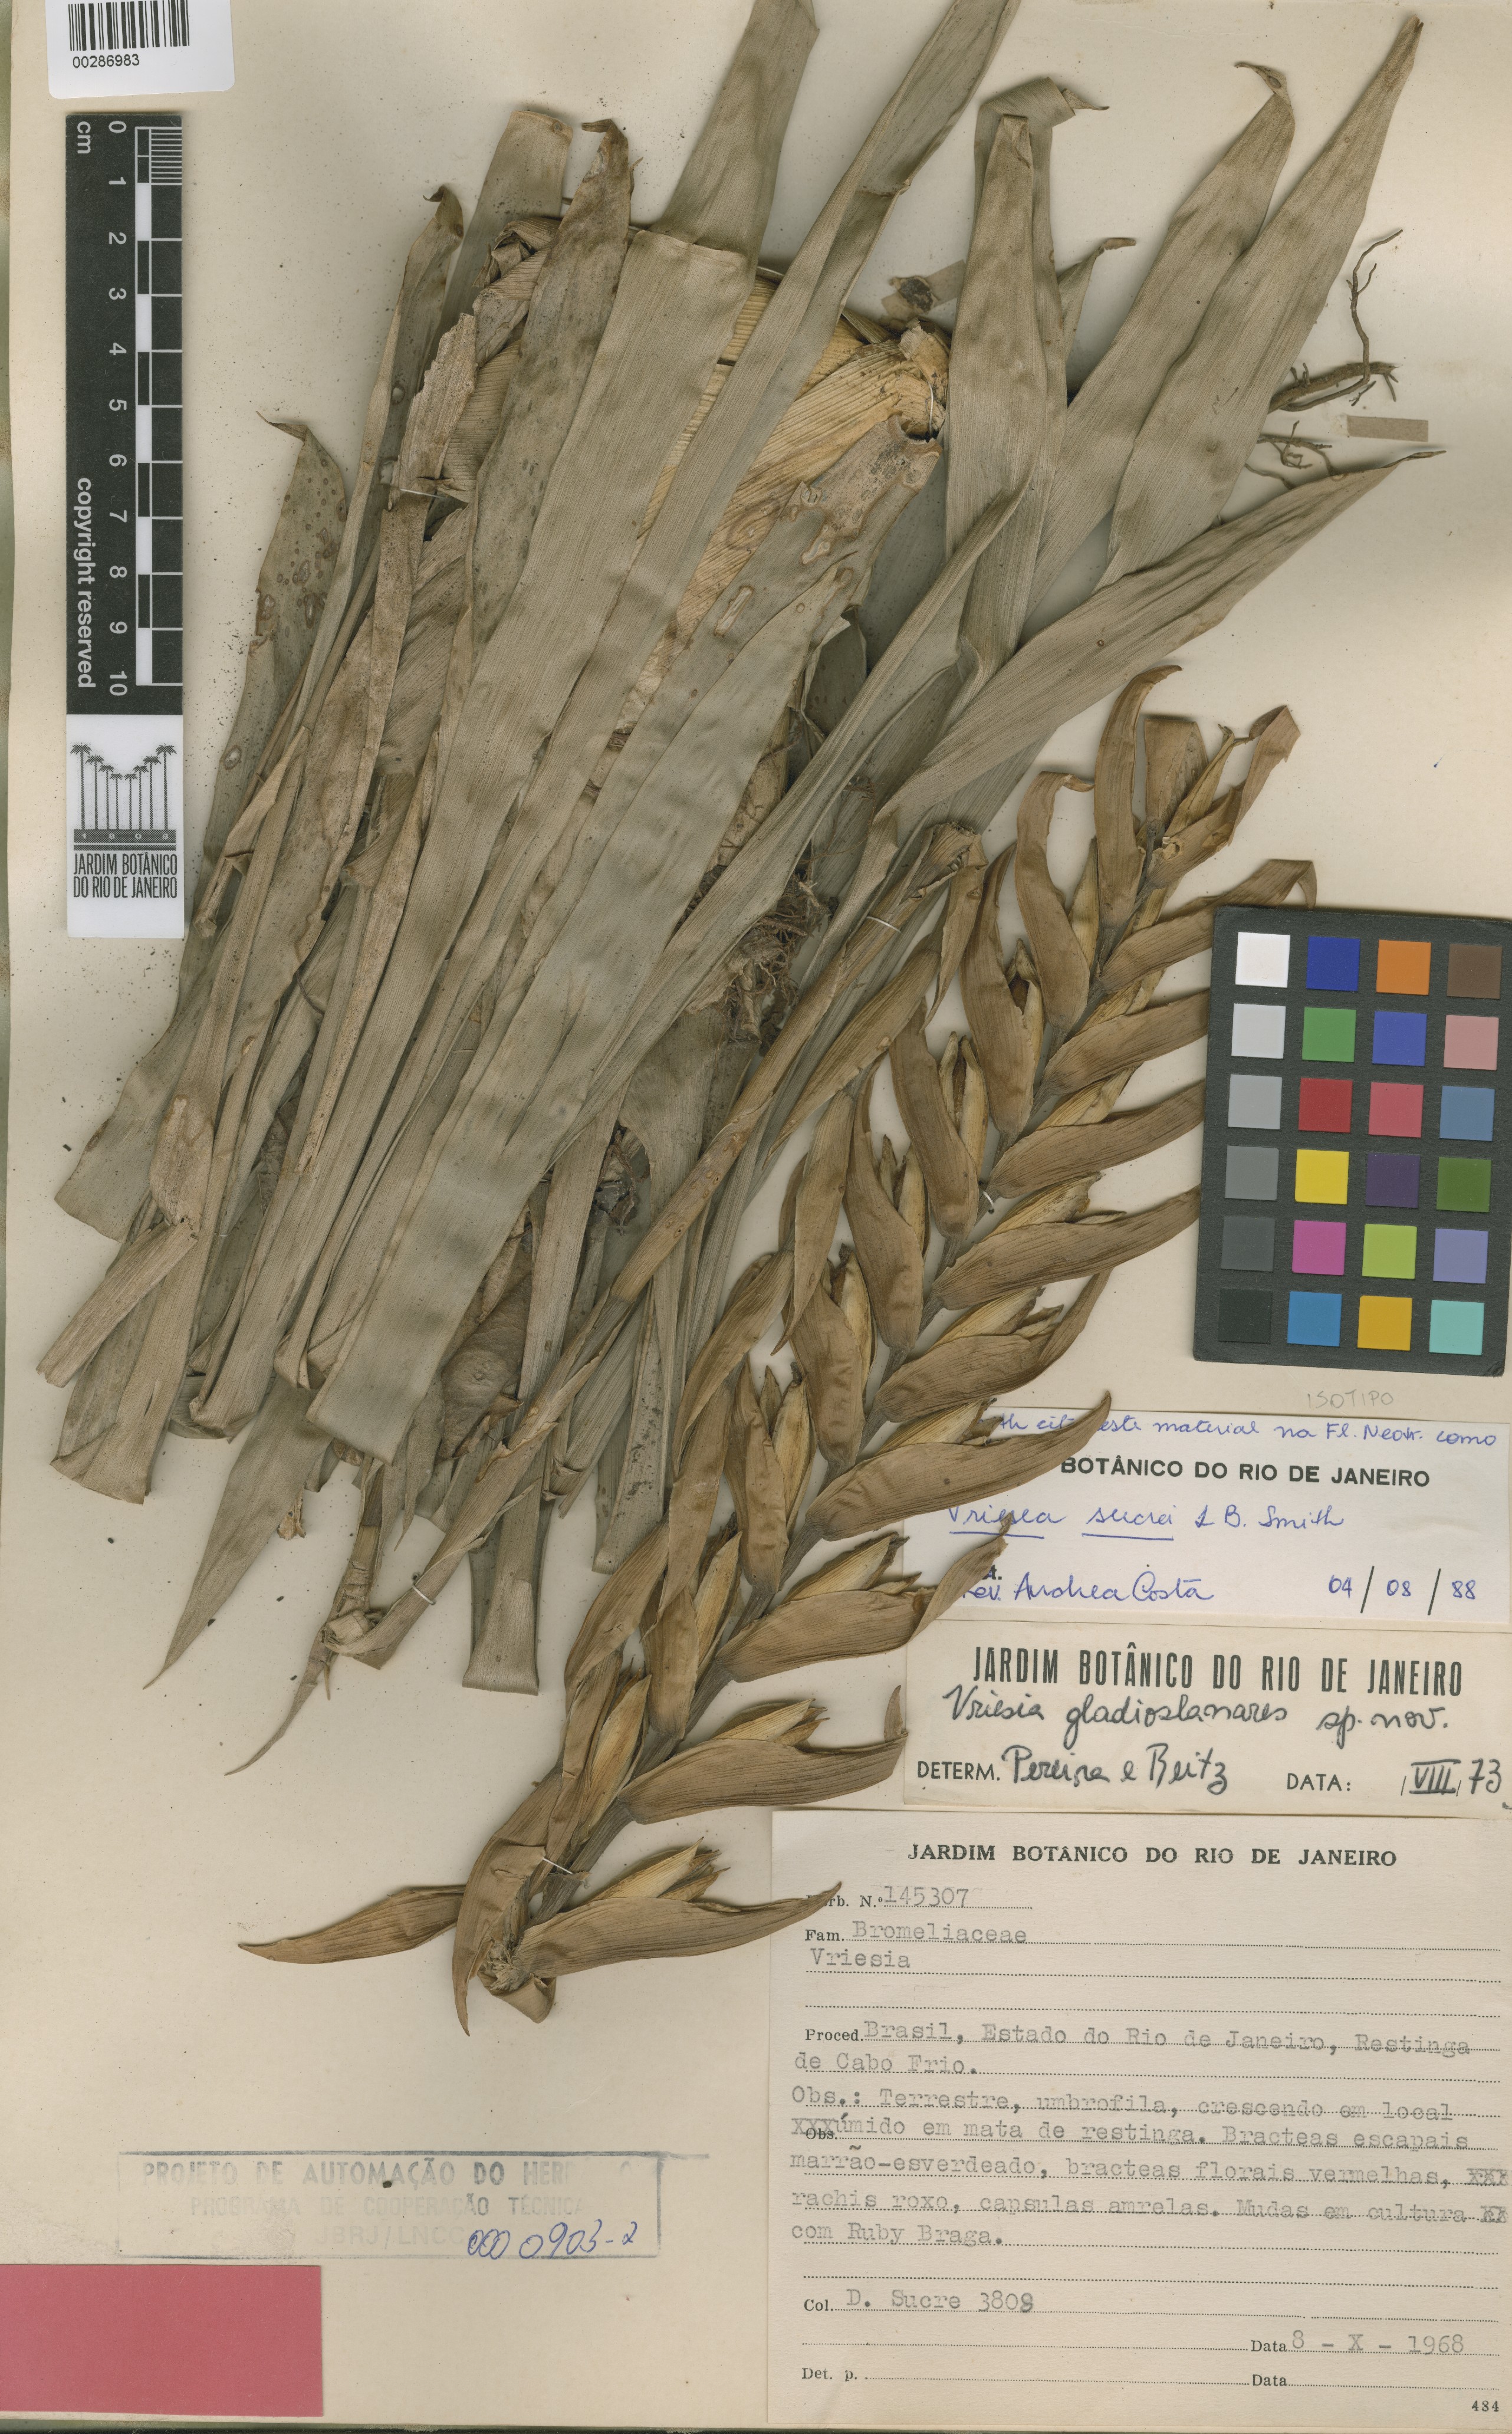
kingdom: Plantae
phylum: Tracheophyta
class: Liliopsida
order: Poales
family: Bromeliaceae
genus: Vriesea
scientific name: Vriesea sucrei
